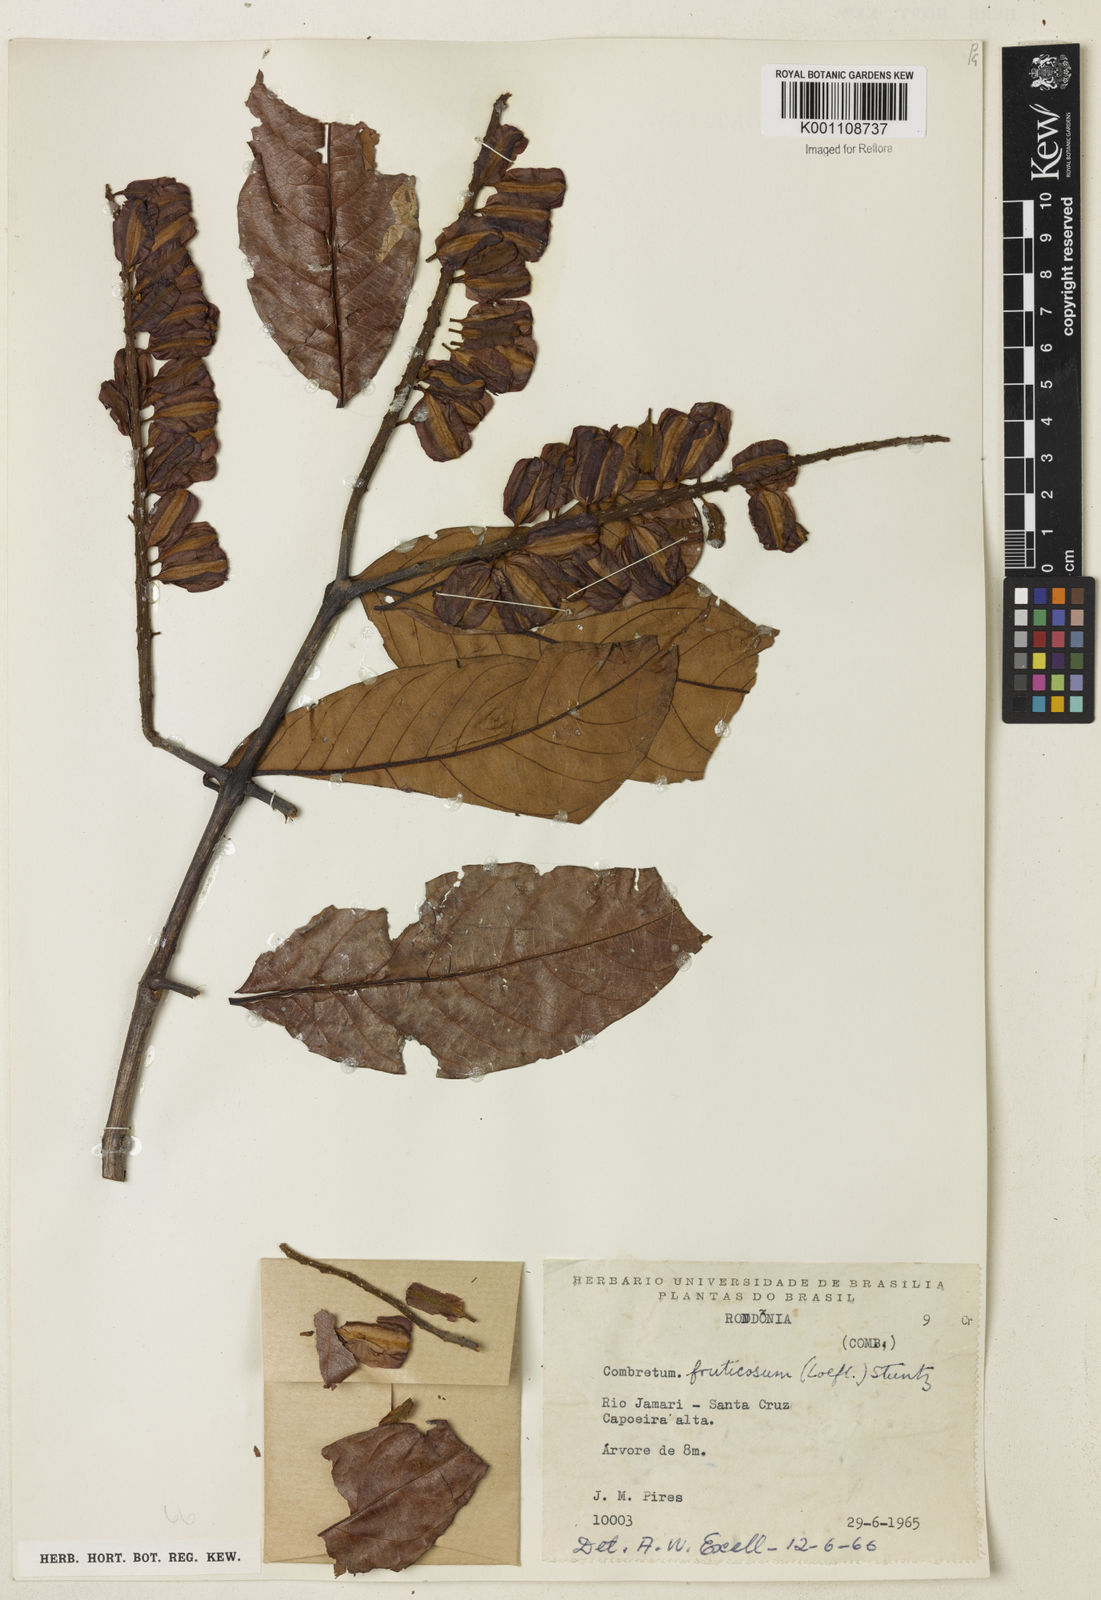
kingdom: Plantae
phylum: Tracheophyta
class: Magnoliopsida
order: Myrtales
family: Combretaceae
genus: Combretum
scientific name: Combretum fruticosum
